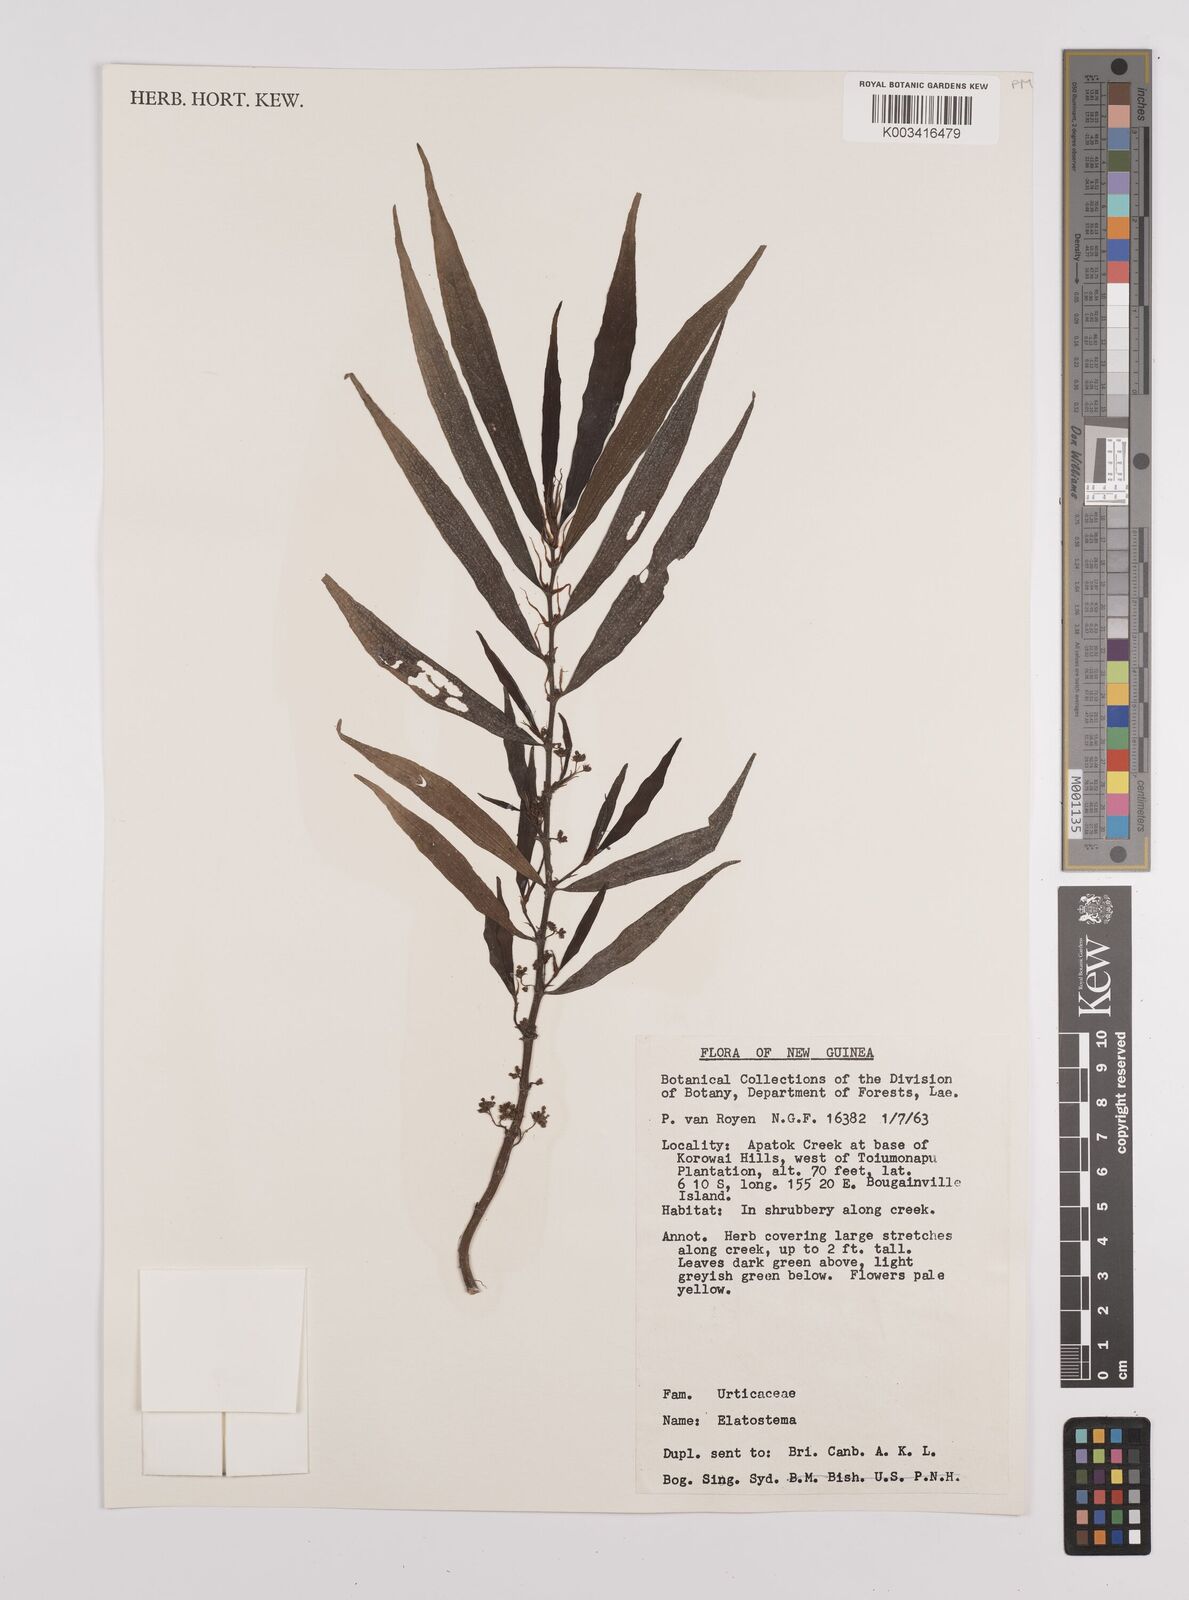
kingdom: Plantae
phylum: Tracheophyta
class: Magnoliopsida
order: Rosales
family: Urticaceae
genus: Elatostema
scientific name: Elatostema
